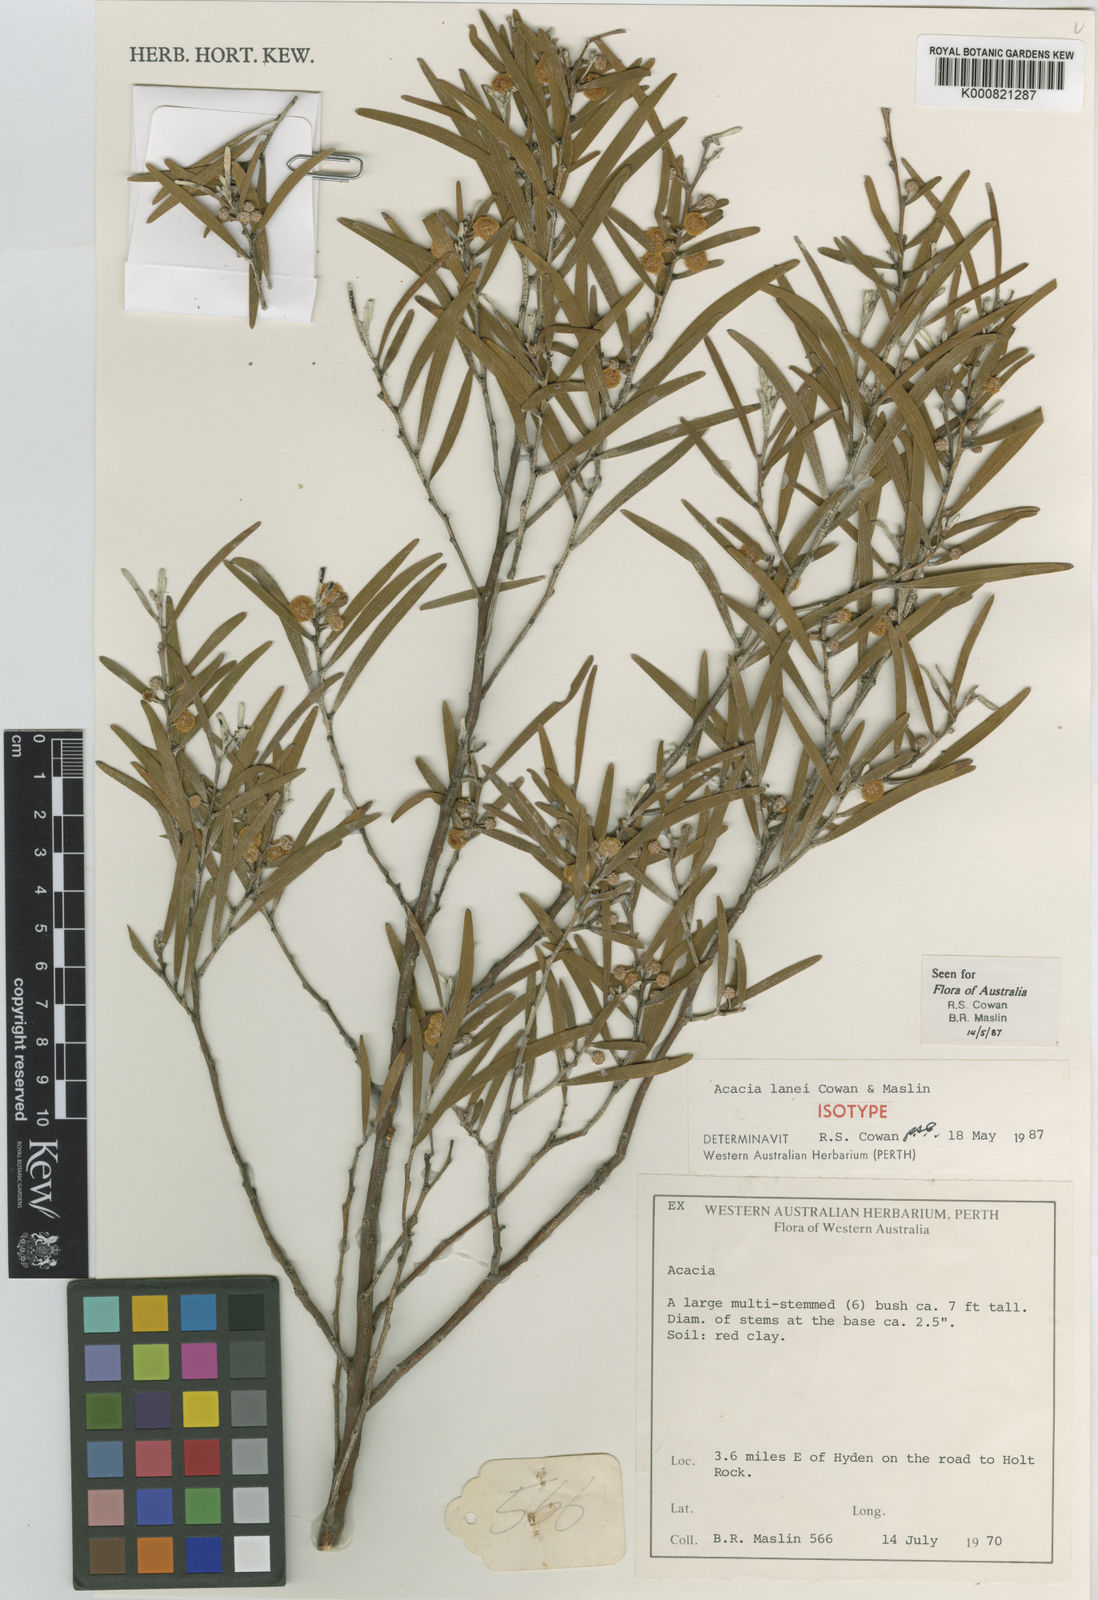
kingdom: Plantae
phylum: Tracheophyta
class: Magnoliopsida
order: Fabales
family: Fabaceae
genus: Acacia
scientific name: Acacia lanei
